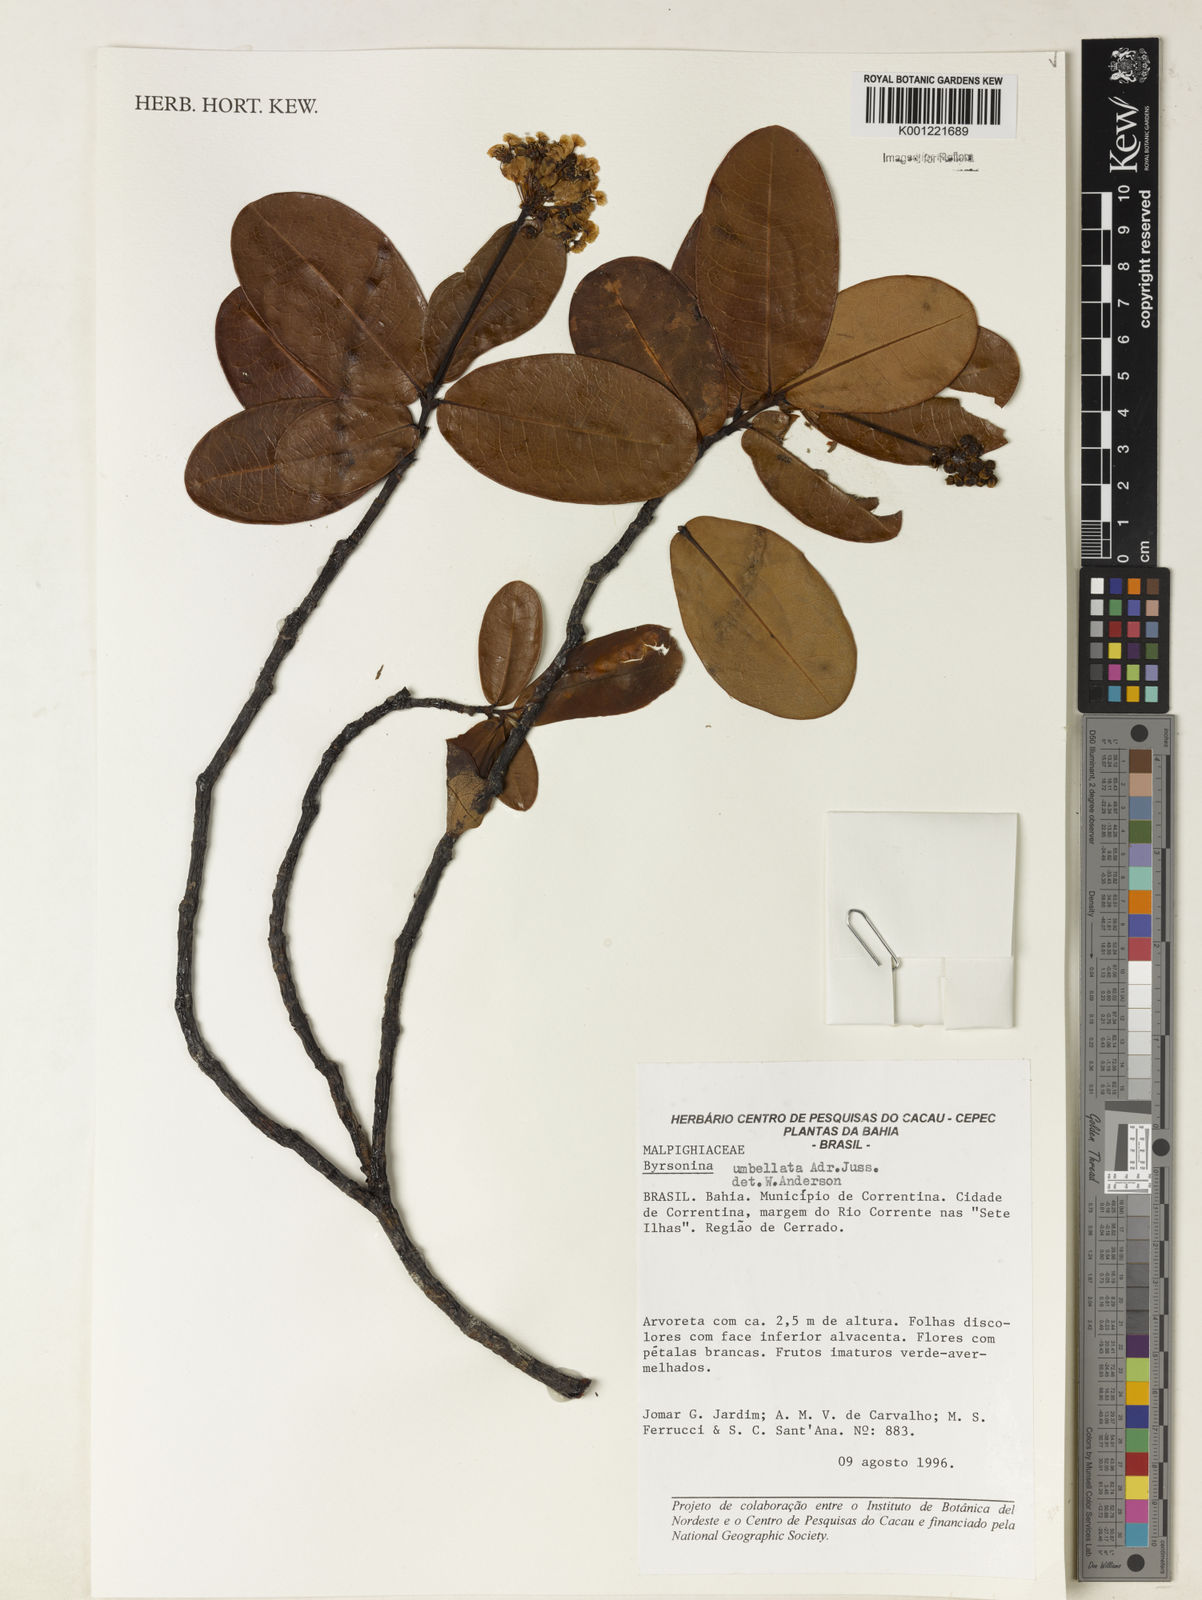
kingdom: Plantae
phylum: Tracheophyta
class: Magnoliopsida
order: Malpighiales
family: Malpighiaceae
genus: Byrsonima
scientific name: Byrsonima umbellata
